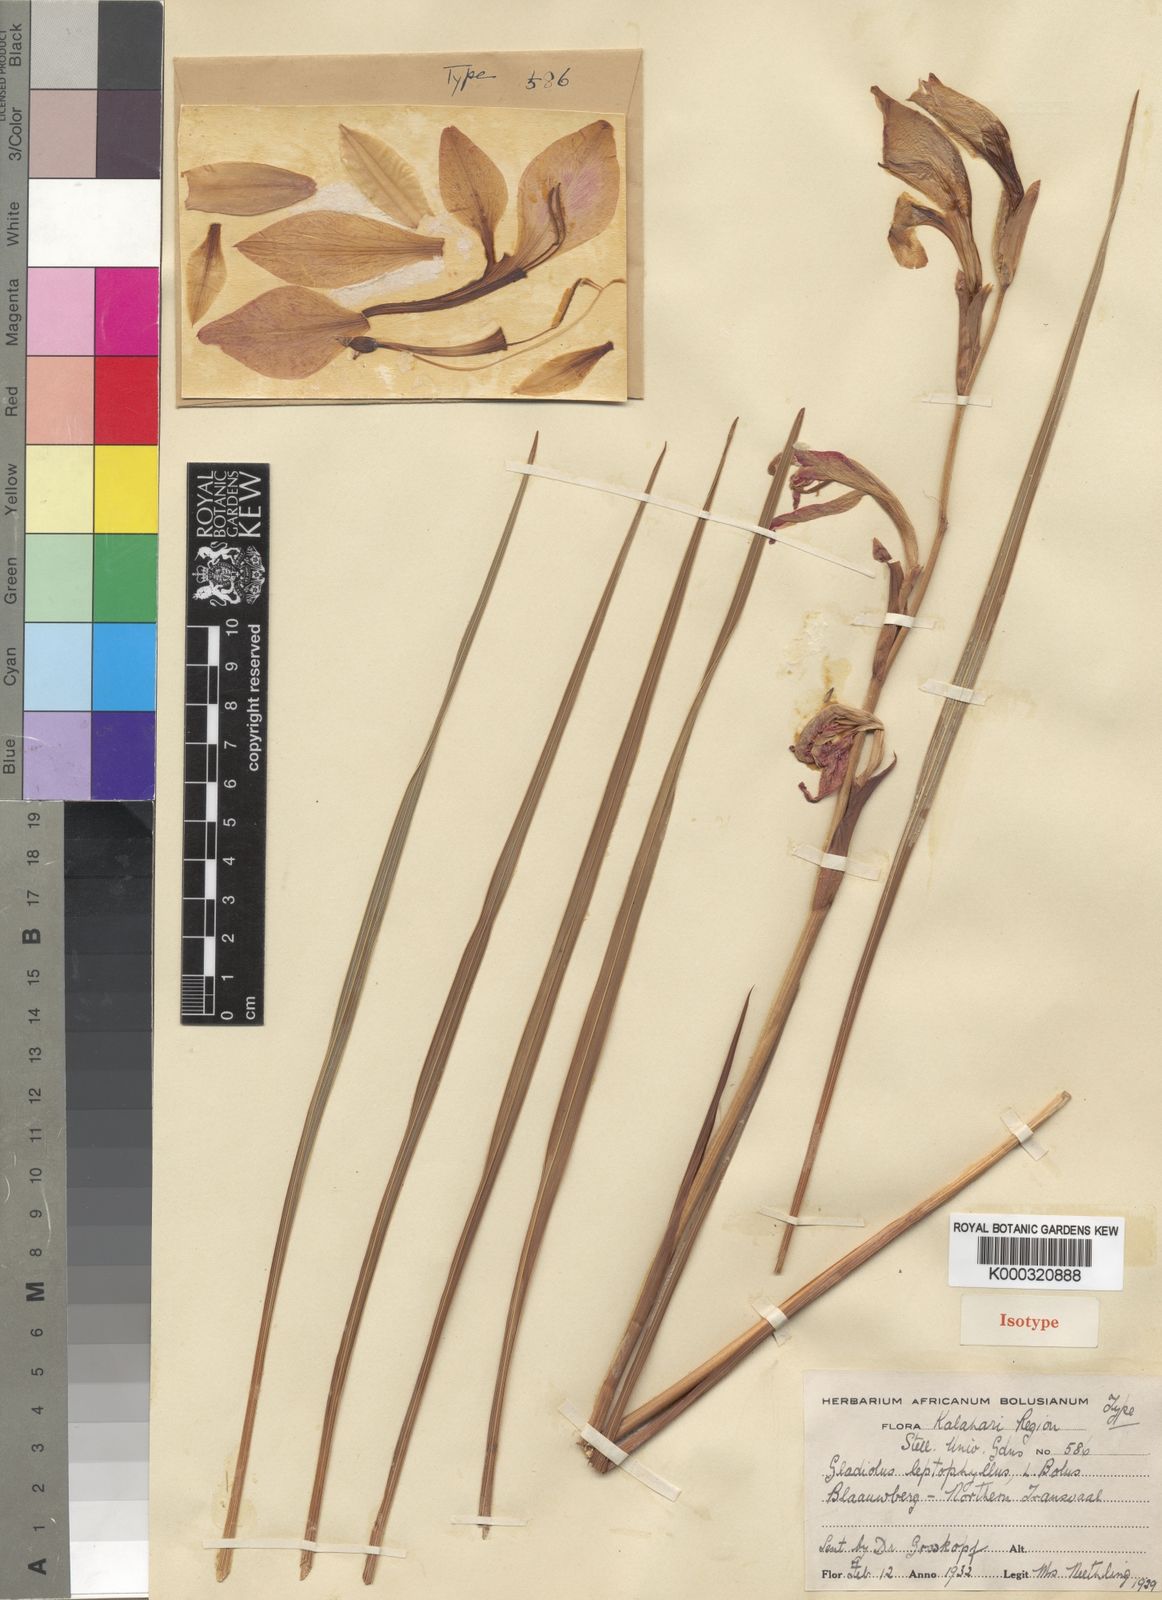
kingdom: Plantae
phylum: Tracheophyta
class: Liliopsida
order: Asparagales
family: Iridaceae
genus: Gladiolus
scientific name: Gladiolus dalenii
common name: Cornflag
